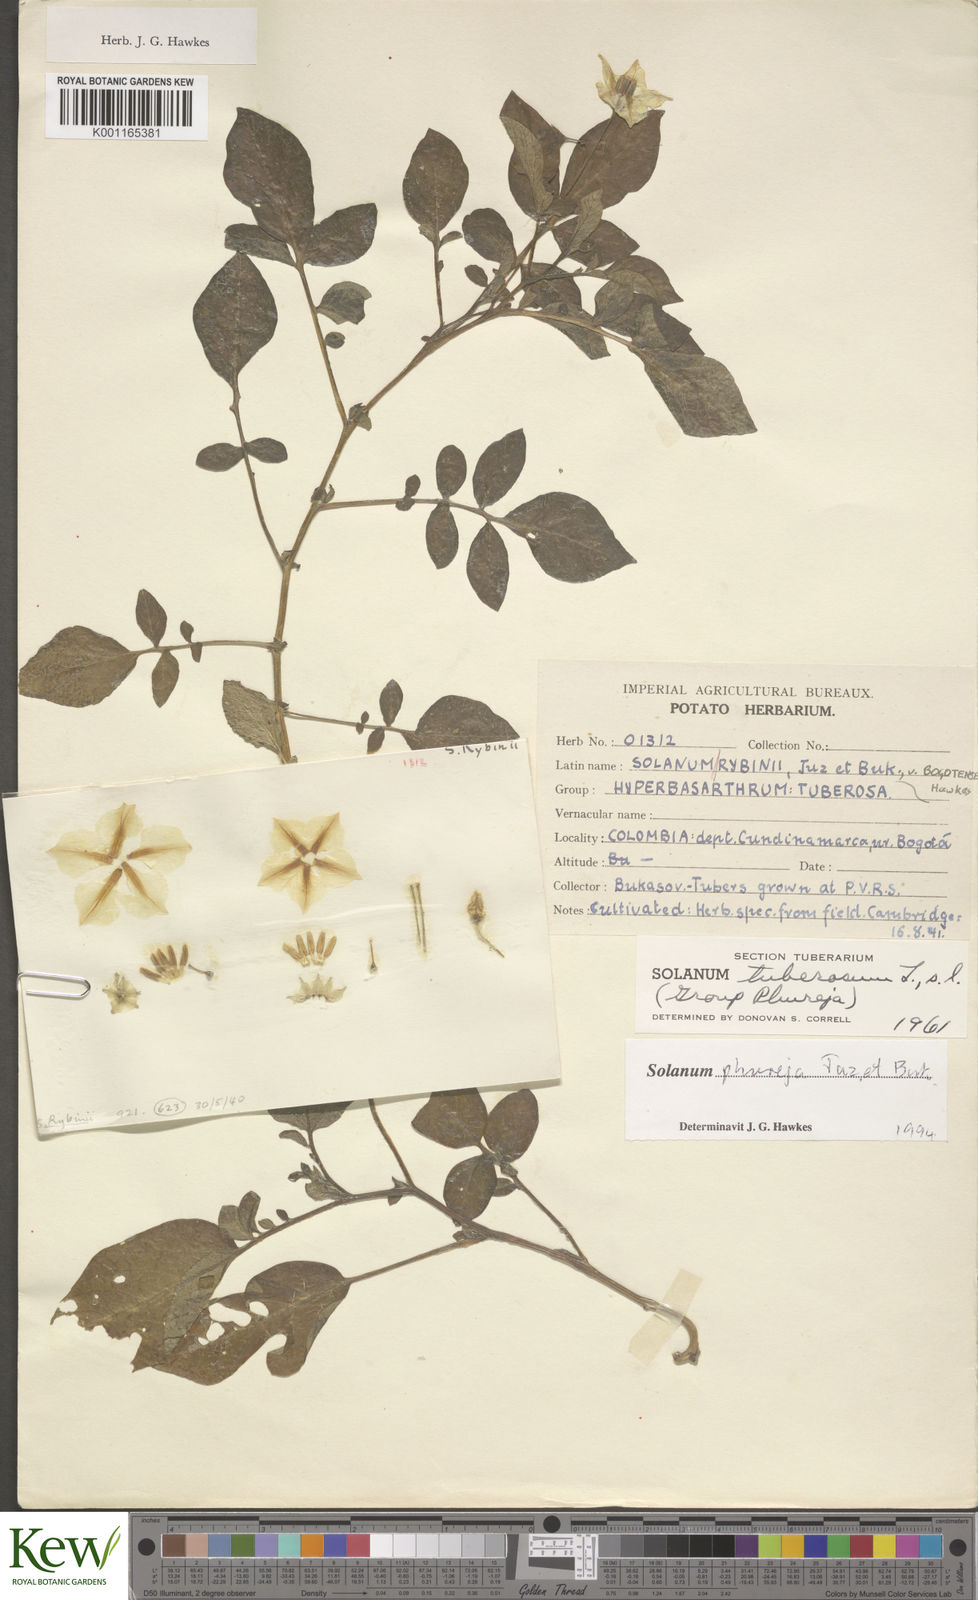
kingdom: Plantae
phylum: Tracheophyta
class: Magnoliopsida
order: Solanales
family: Solanaceae
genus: Solanum
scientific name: Solanum tuberosum
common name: Potato
